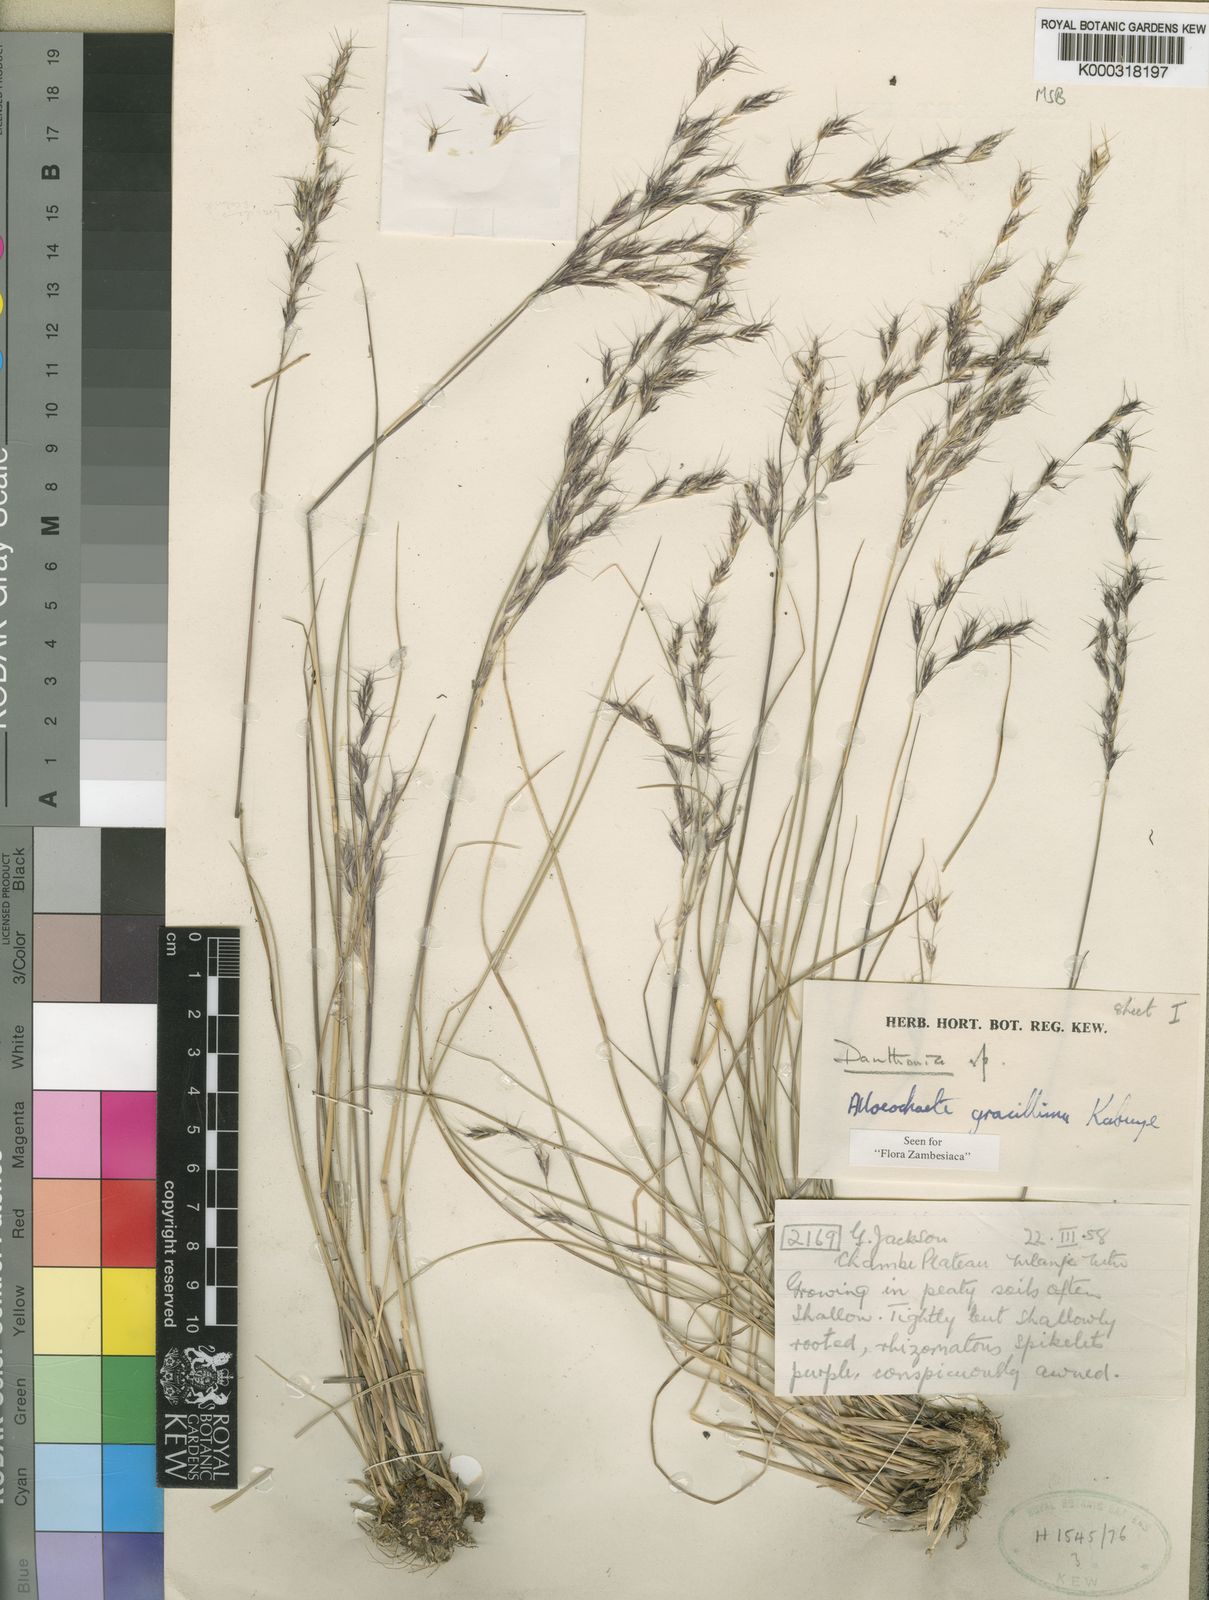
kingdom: Plantae
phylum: Tracheophyta
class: Liliopsida
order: Poales
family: Poaceae
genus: Alloeochaete
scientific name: Alloeochaete gracillima
